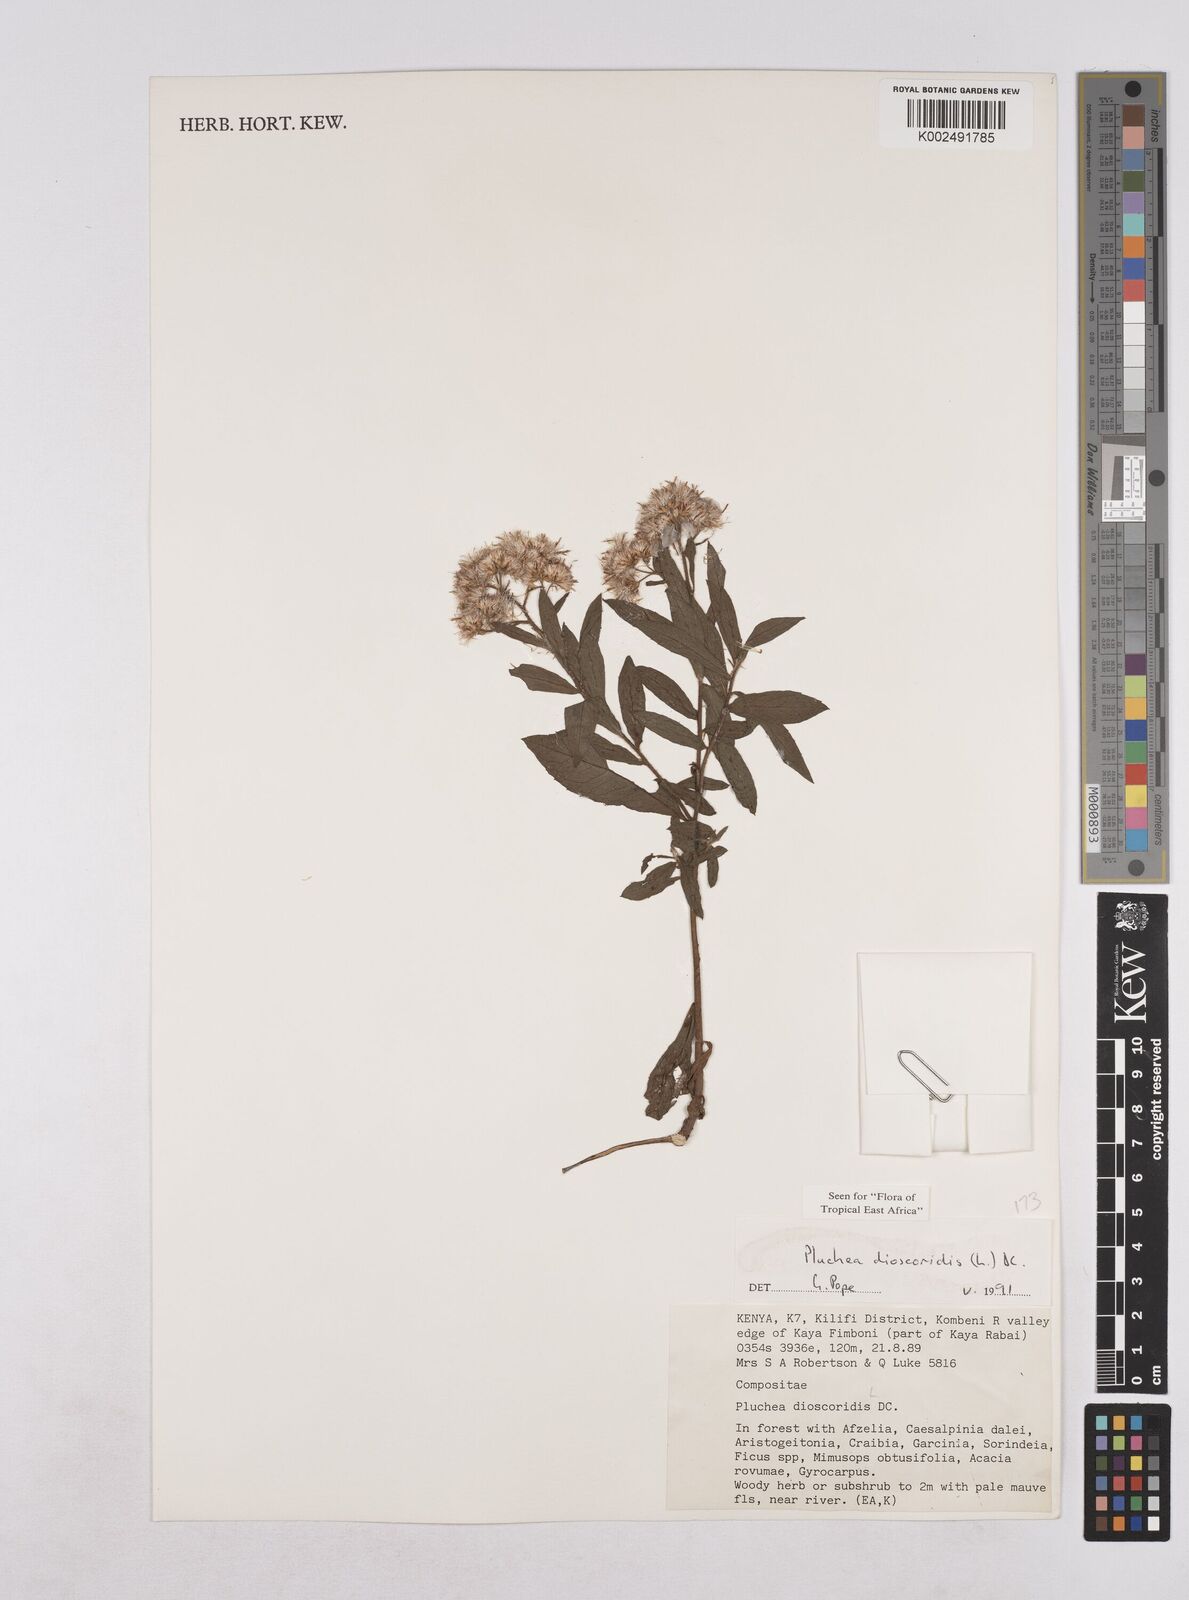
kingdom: Plantae
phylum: Tracheophyta
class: Magnoliopsida
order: Asterales
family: Asteraceae
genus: Pluchea
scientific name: Pluchea dioscoridis
